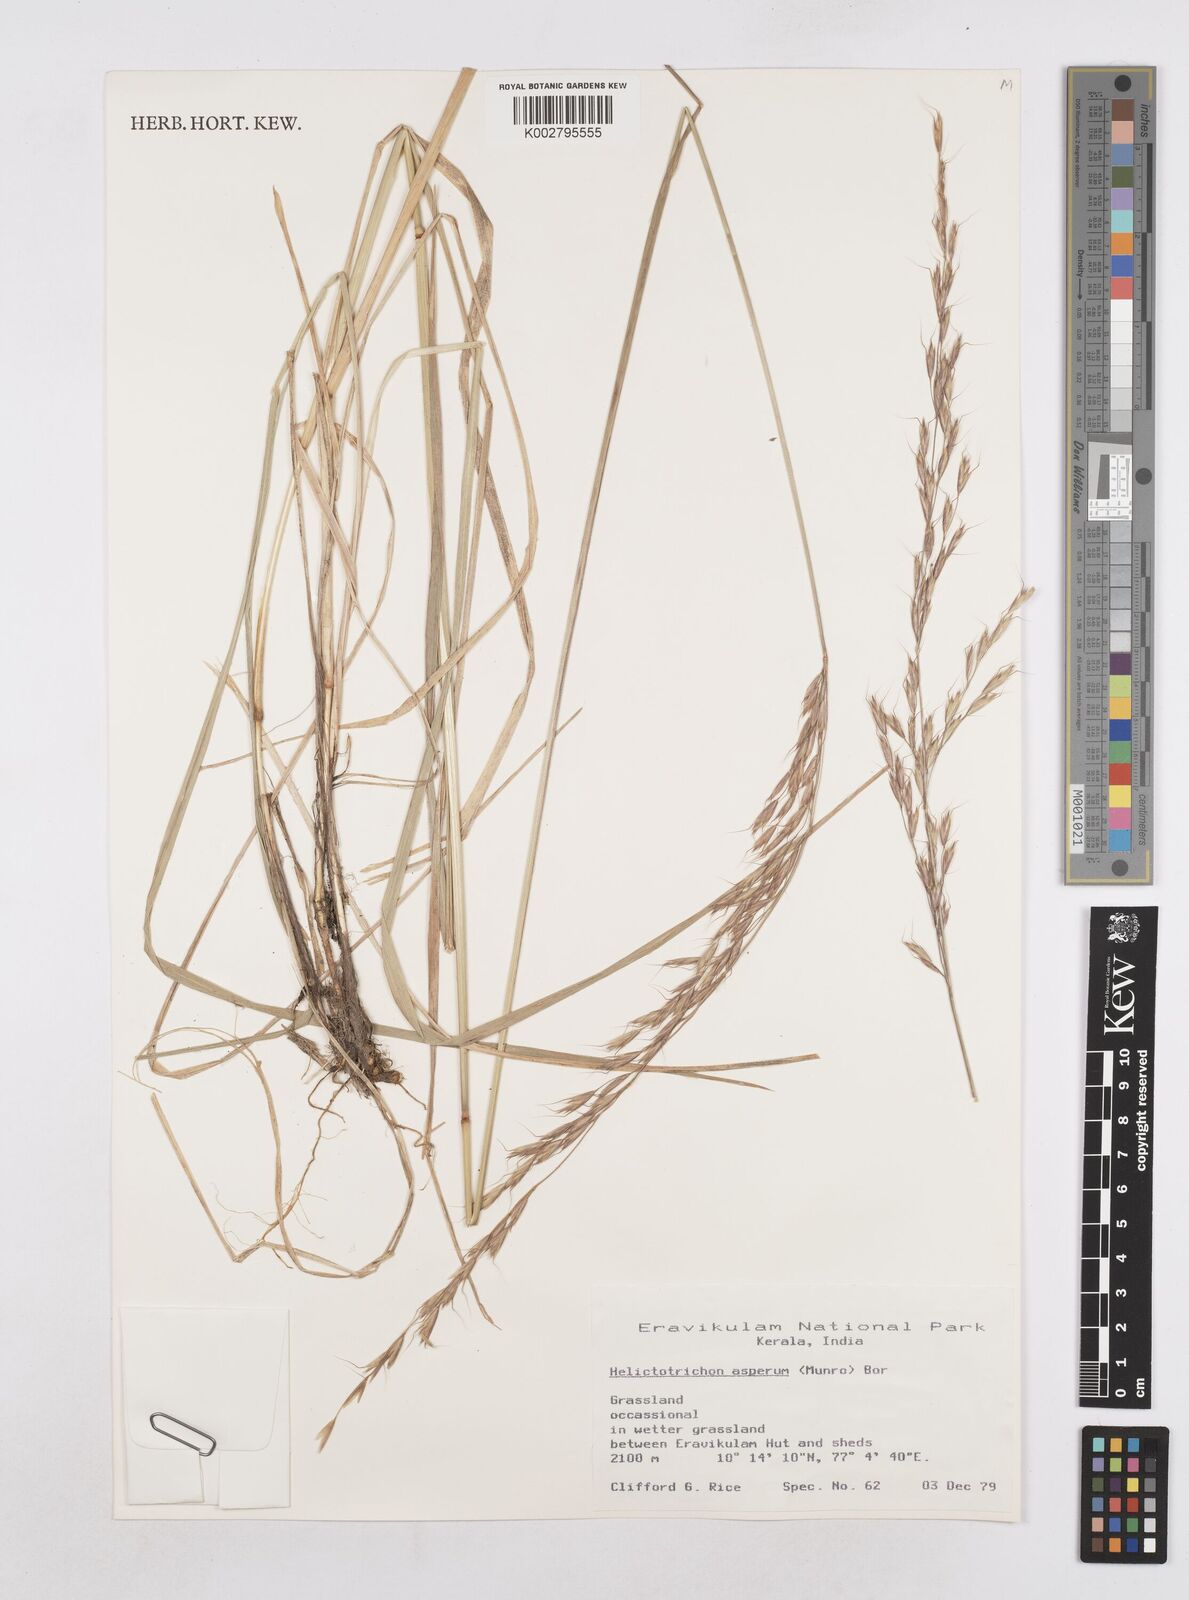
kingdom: Plantae
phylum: Tracheophyta
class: Liliopsida
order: Poales
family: Poaceae
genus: Trisetopsis
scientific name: Trisetopsis junghuhnii
